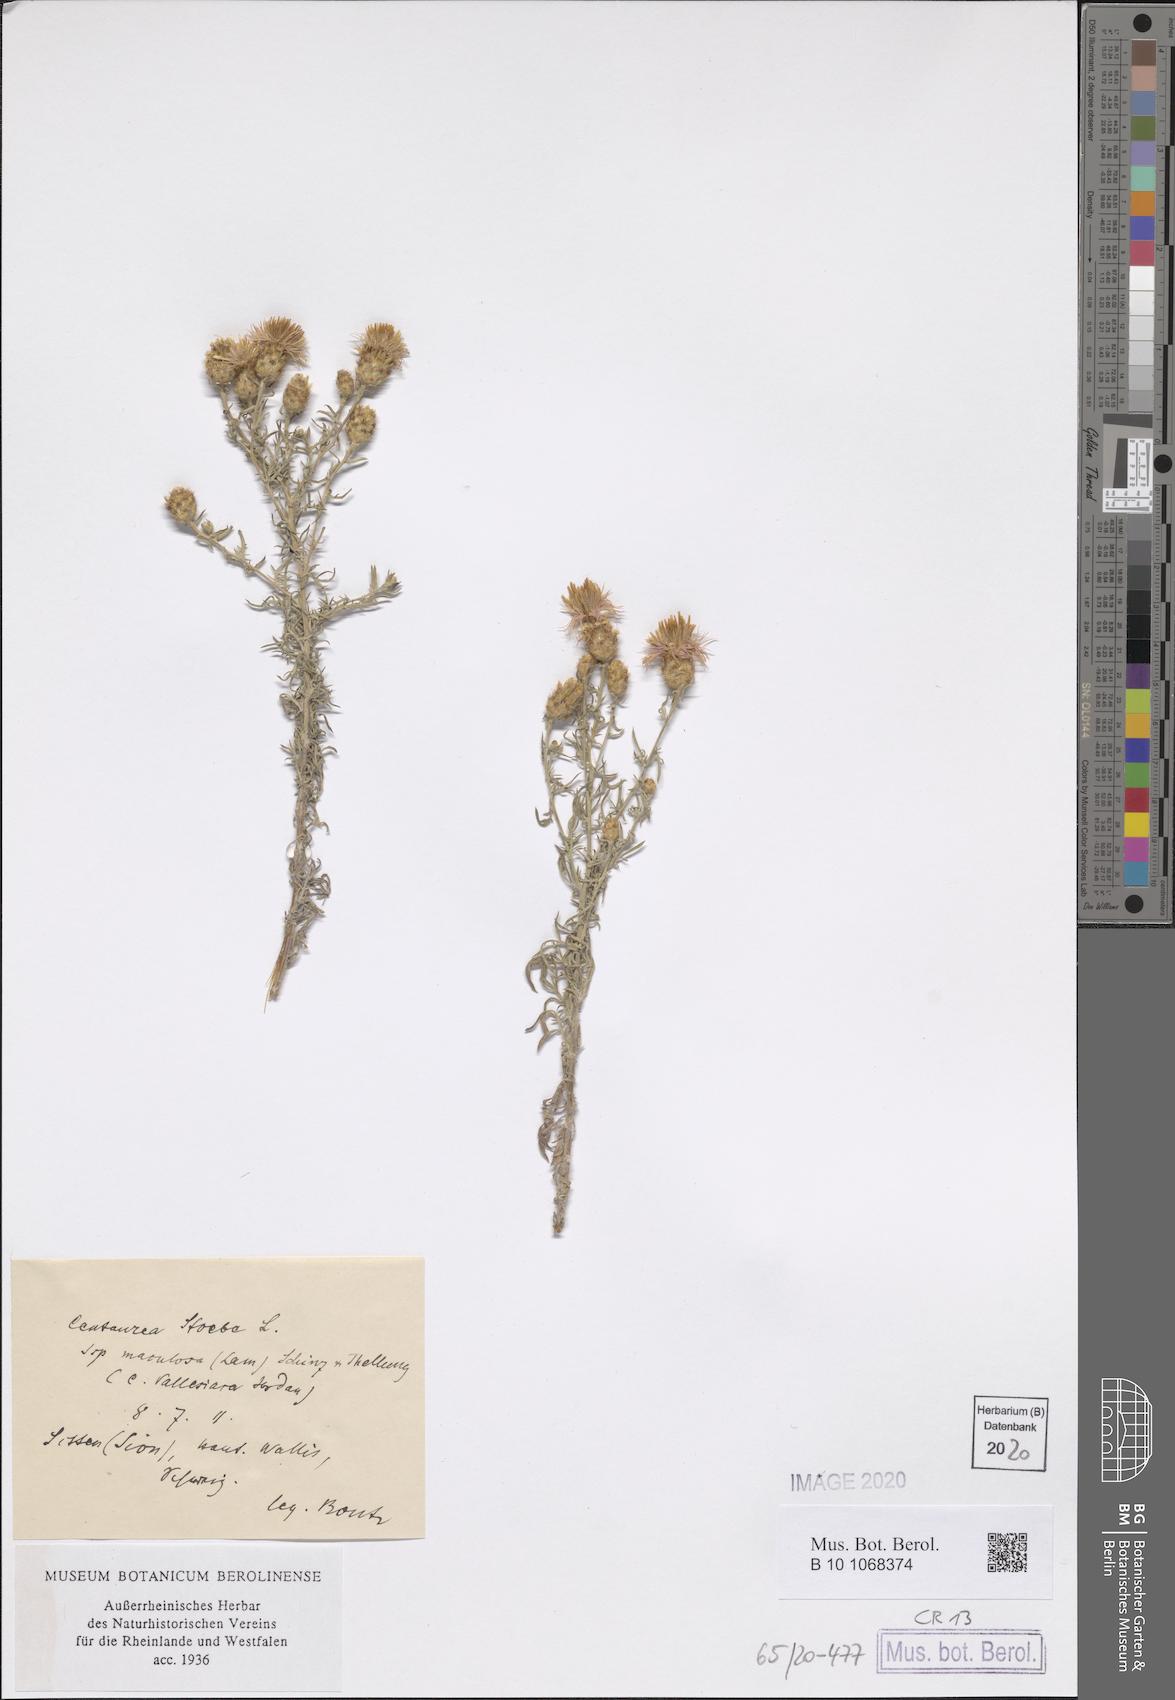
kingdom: Plantae
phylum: Tracheophyta
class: Magnoliopsida
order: Asterales
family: Asteraceae
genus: Centaurea
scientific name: Centaurea stoebe
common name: Spotted knapweed
